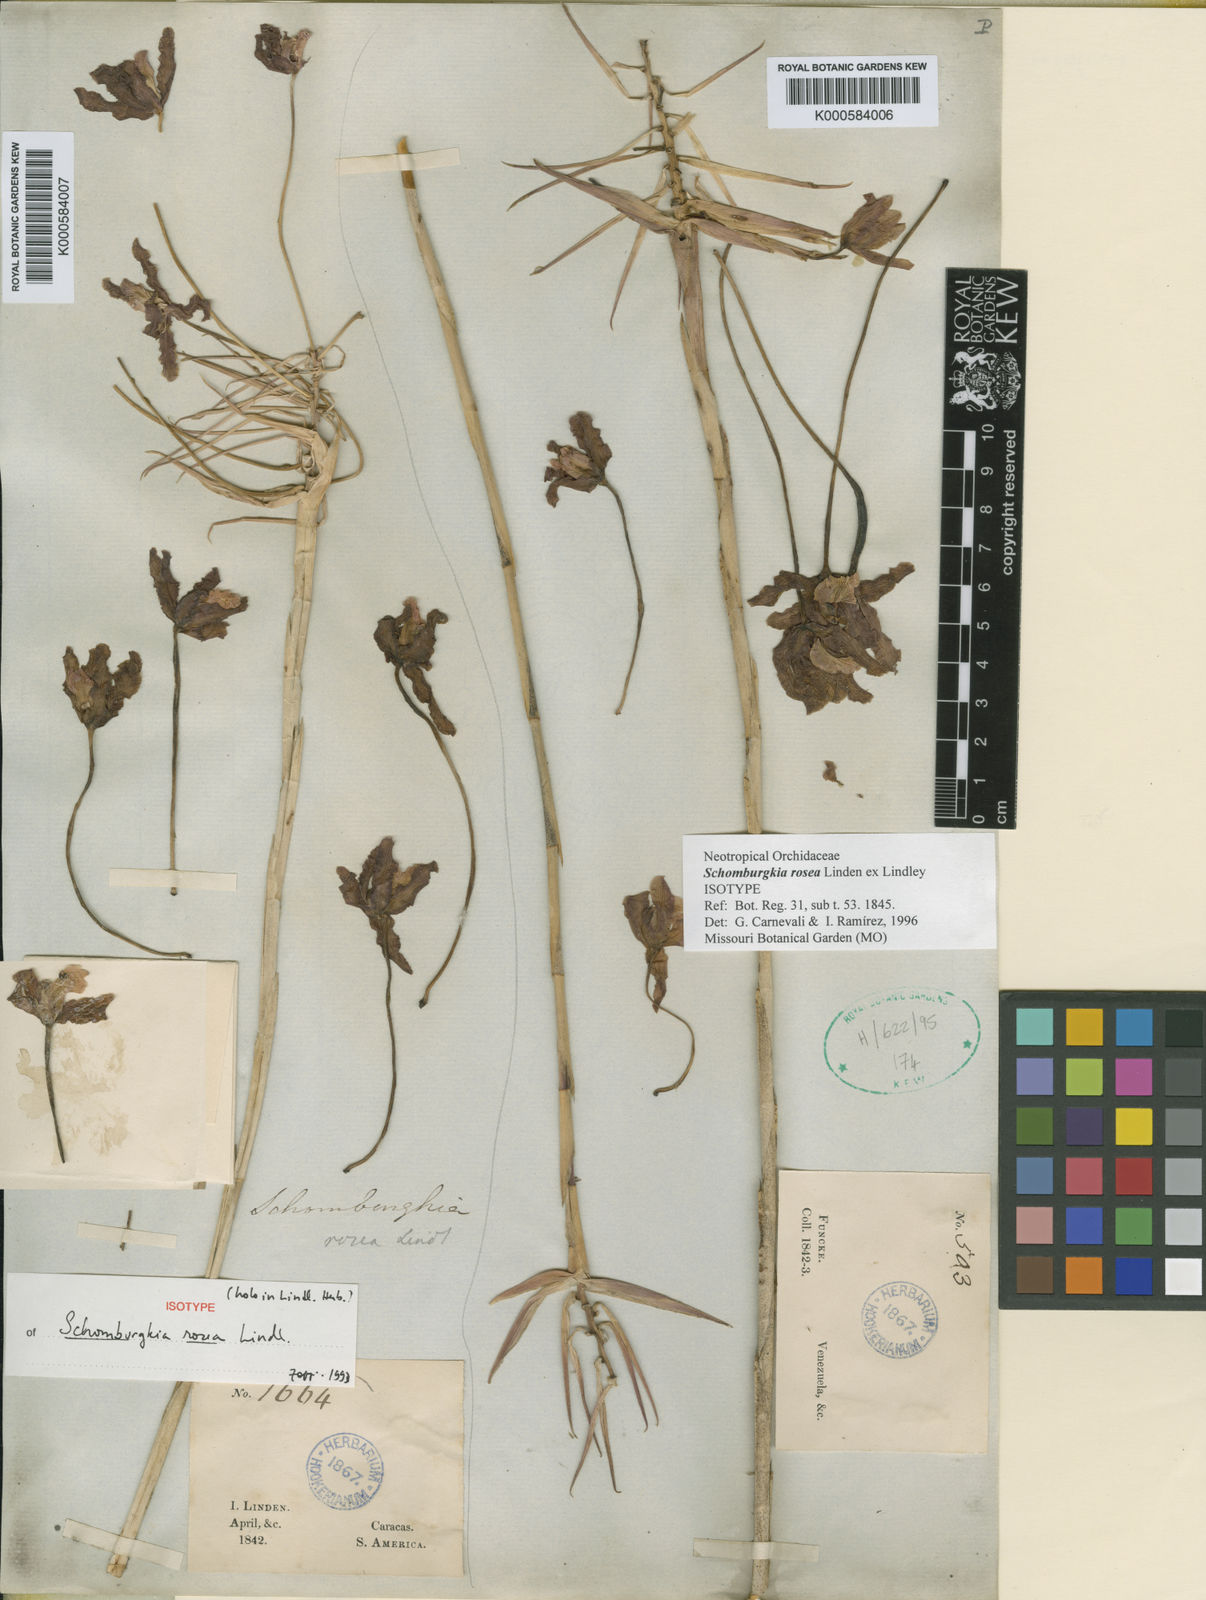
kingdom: Plantae
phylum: Tracheophyta
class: Liliopsida
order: Asparagales
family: Orchidaceae
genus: Laelia
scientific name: Laelia rosea
